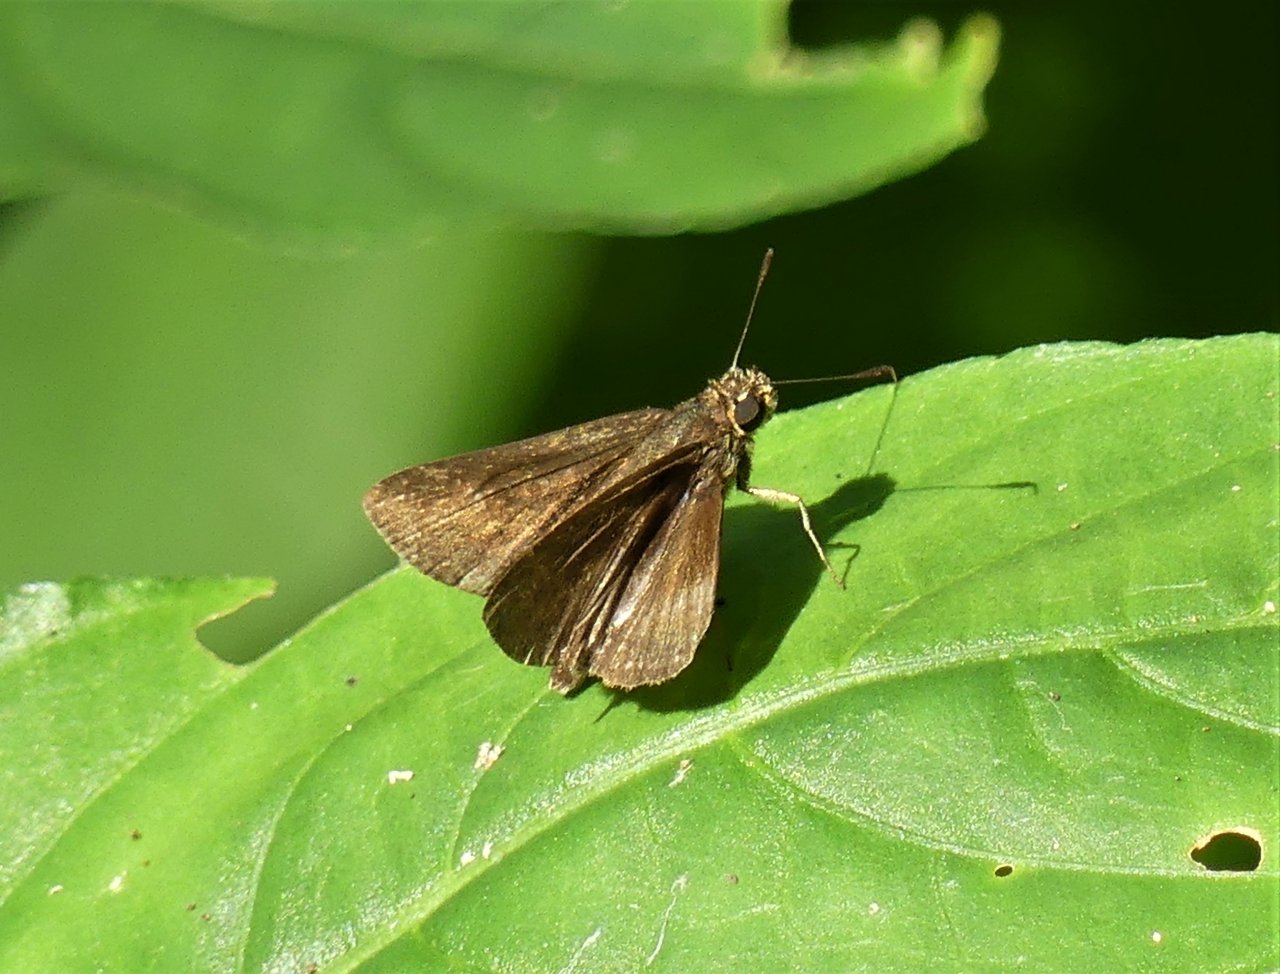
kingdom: Animalia
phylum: Arthropoda
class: Insecta
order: Lepidoptera
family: Hesperiidae
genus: Vehilius
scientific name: Vehilius vetula
